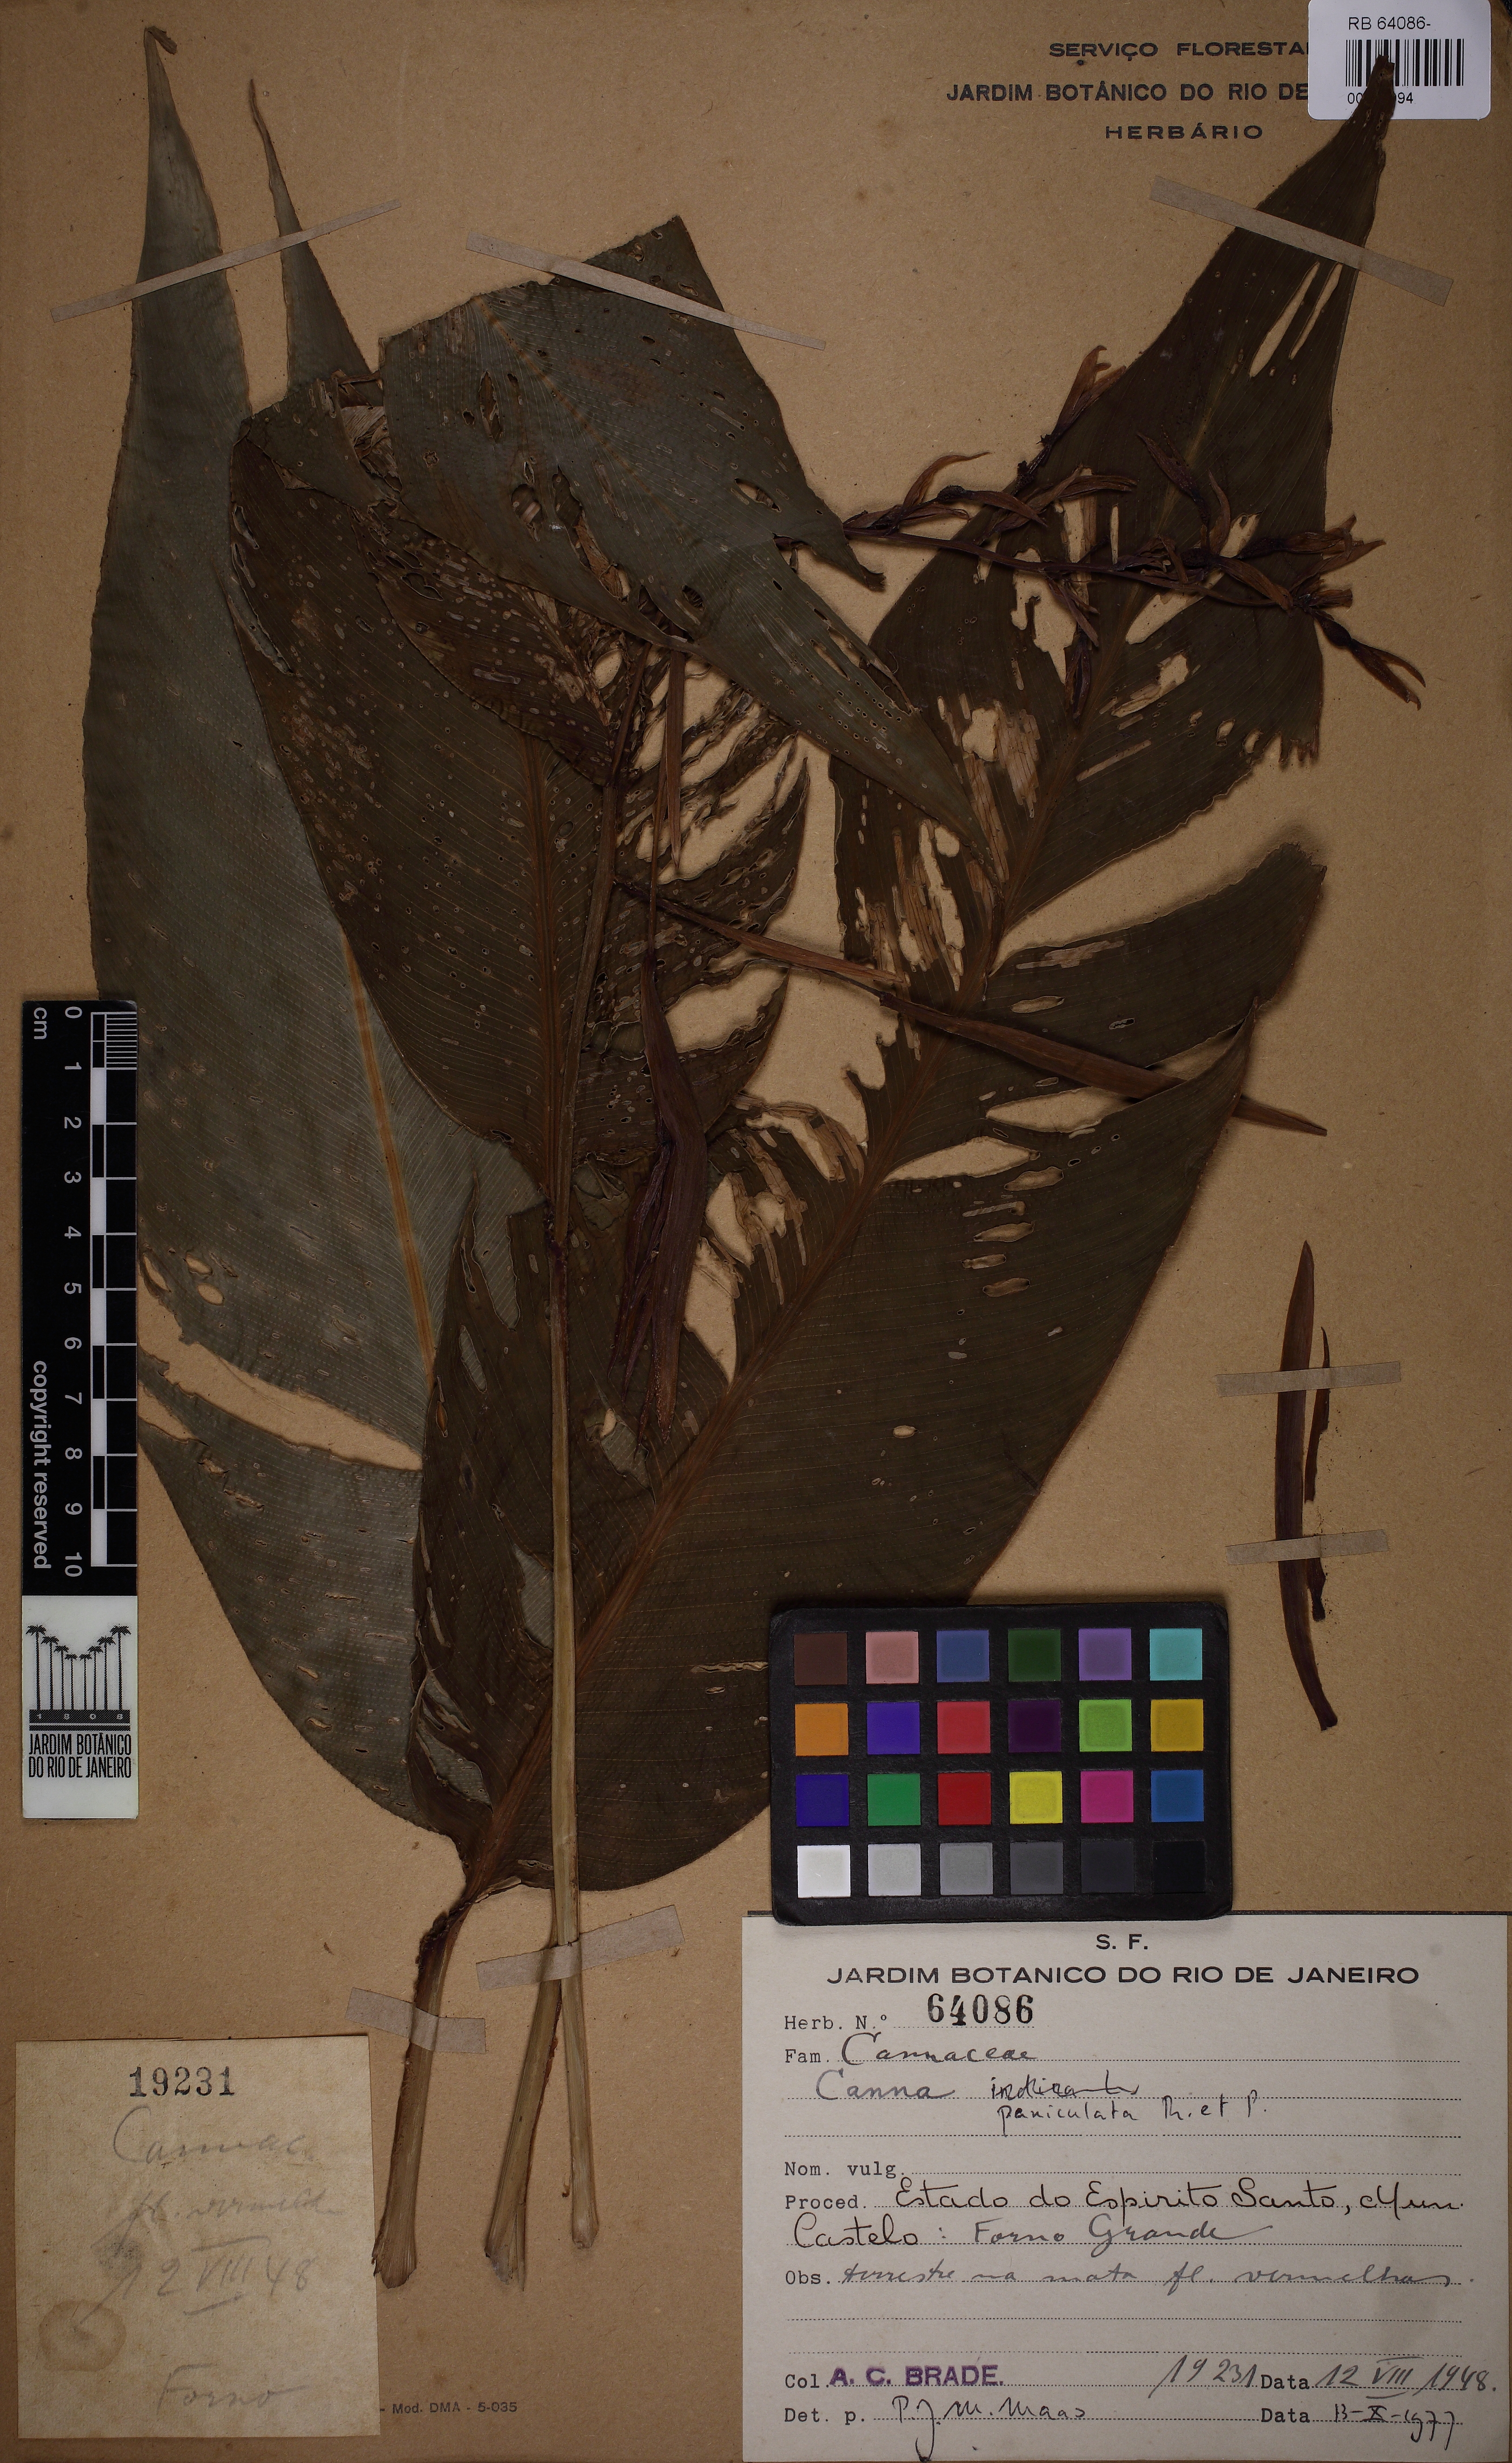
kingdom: Plantae
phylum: Tracheophyta
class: Liliopsida
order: Zingiberales
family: Cannaceae
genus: Canna
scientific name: Canna paniculata
